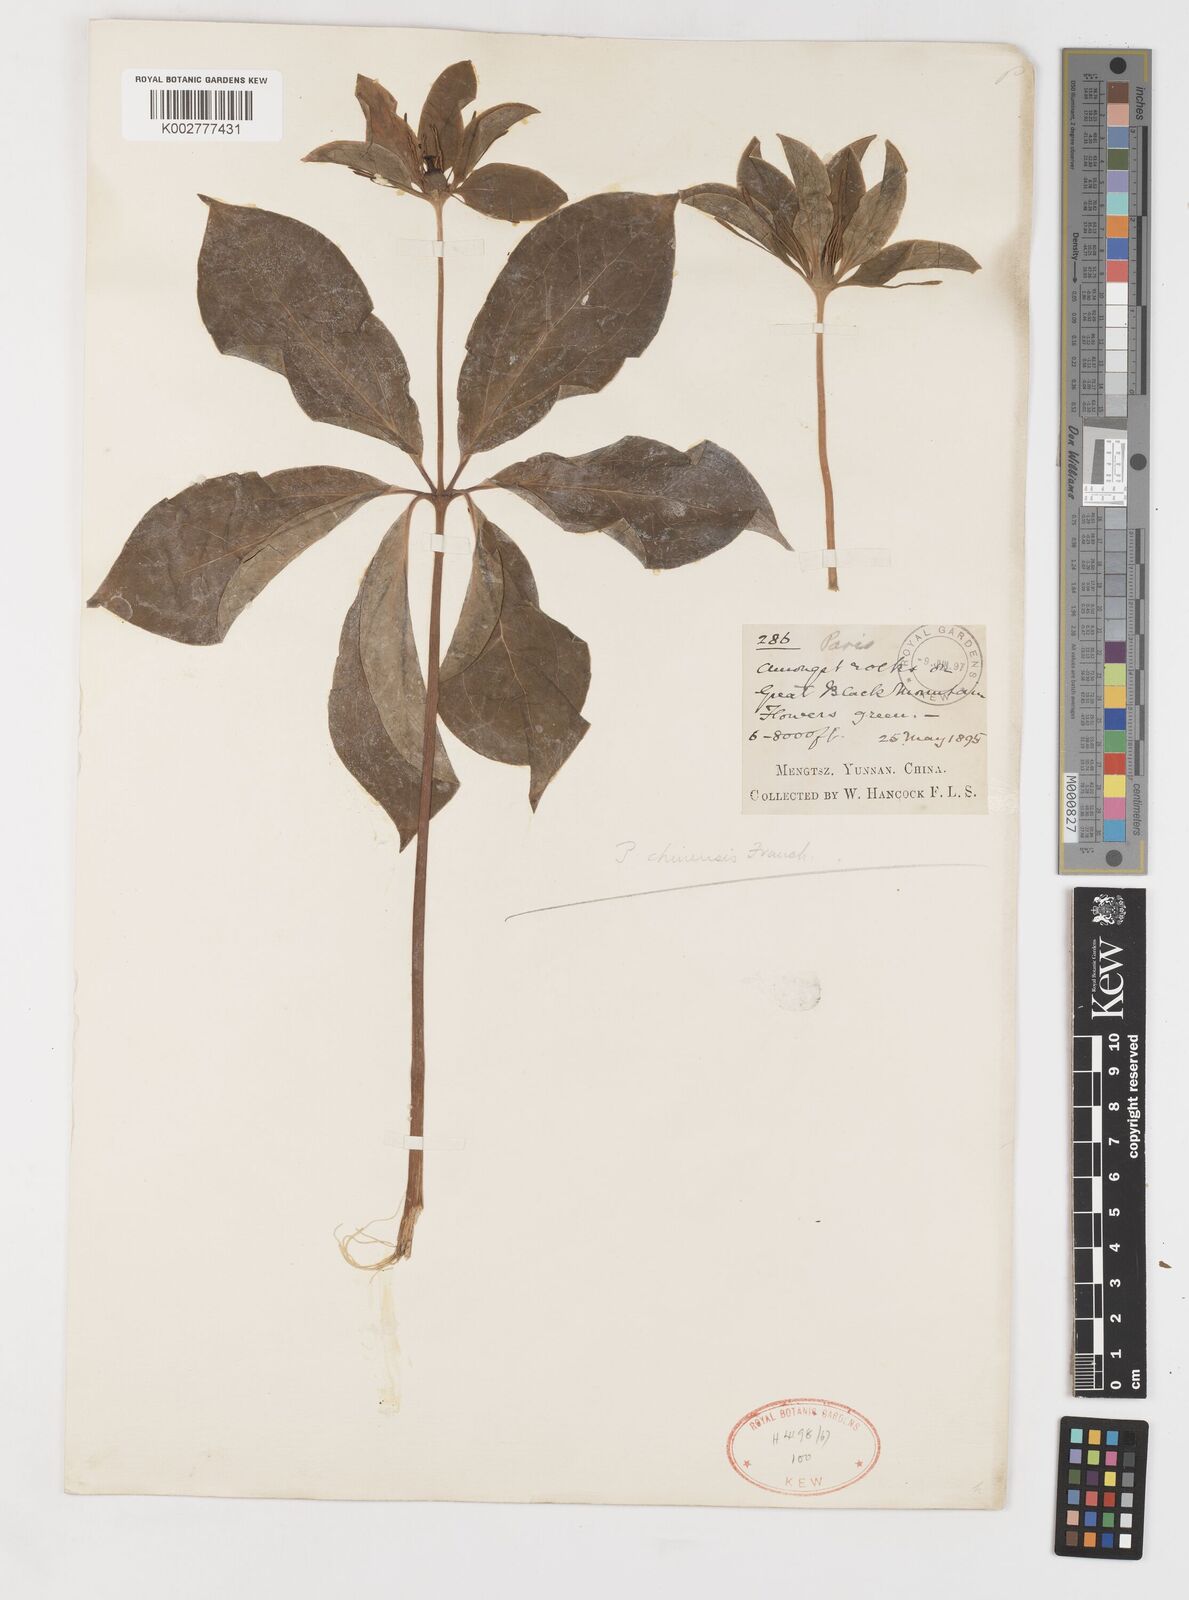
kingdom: Plantae
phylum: Tracheophyta
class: Liliopsida
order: Liliales
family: Melanthiaceae
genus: Paris
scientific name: Paris chinensis
